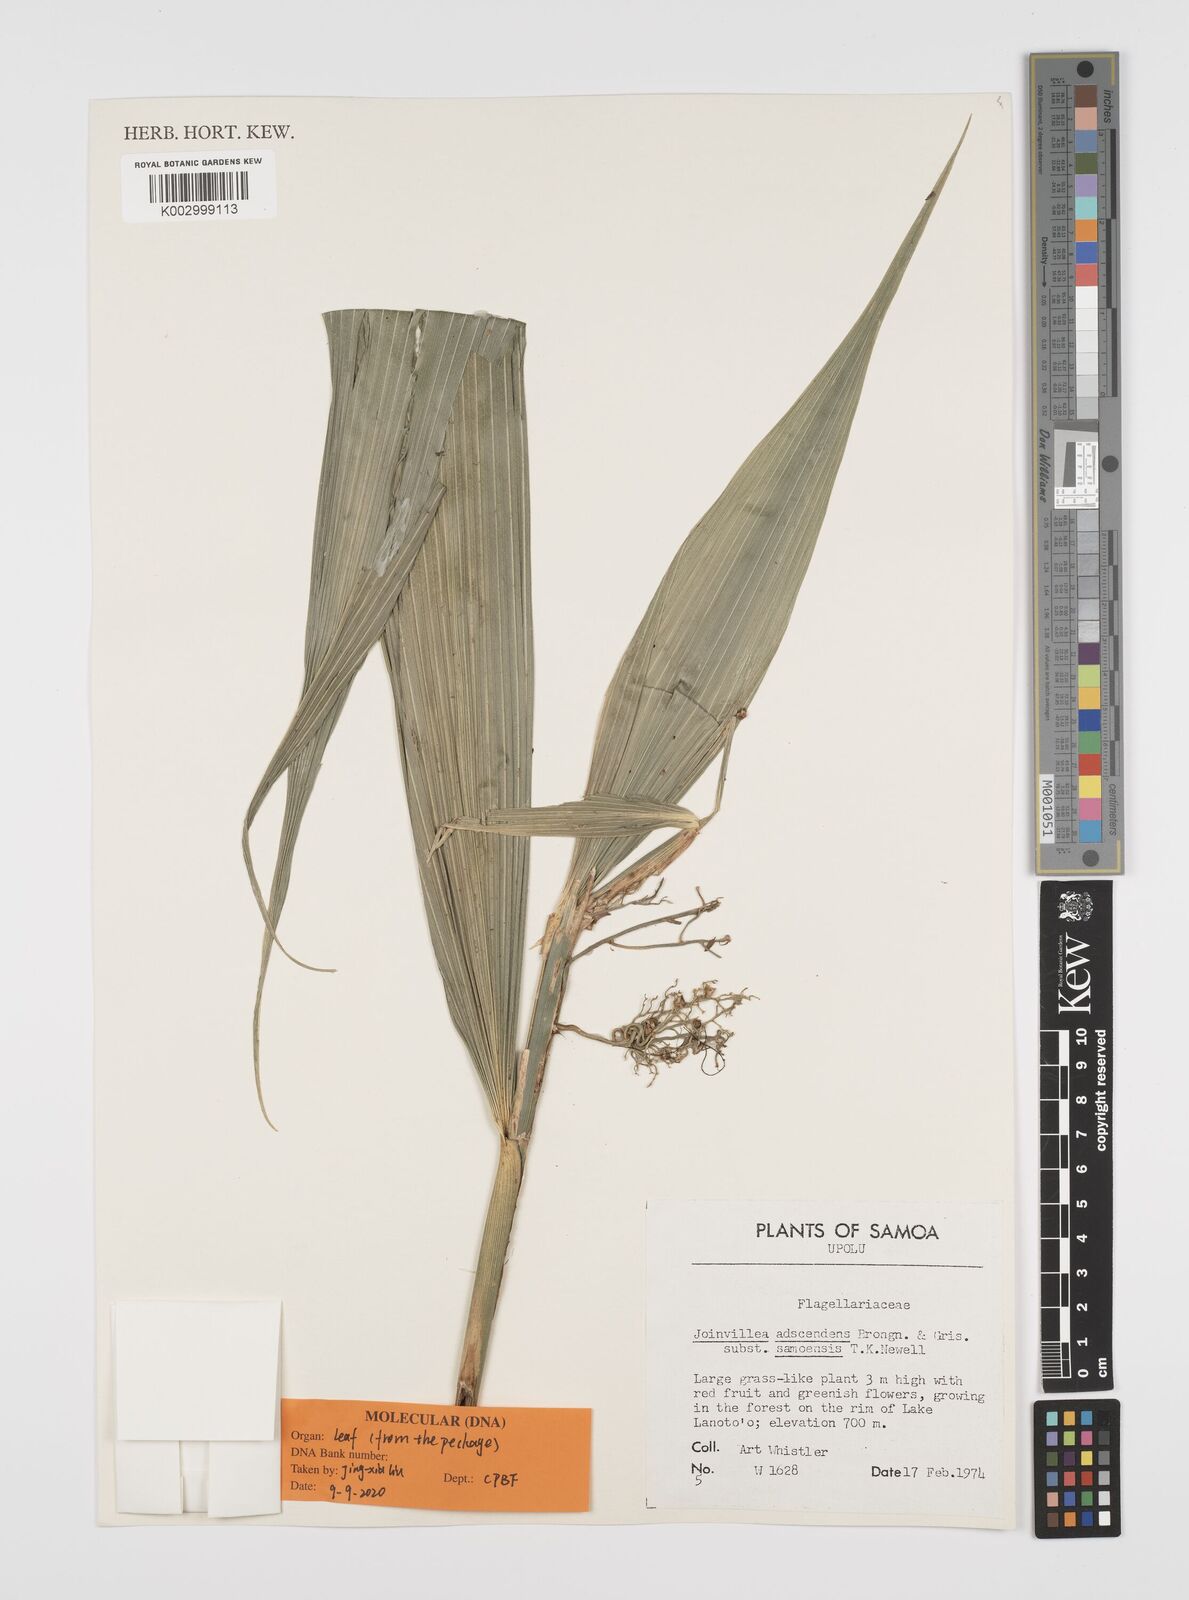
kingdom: Plantae
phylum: Tracheophyta
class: Liliopsida
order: Poales
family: Joinvilleaceae
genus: Joinvillea
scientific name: Joinvillea bryanii
